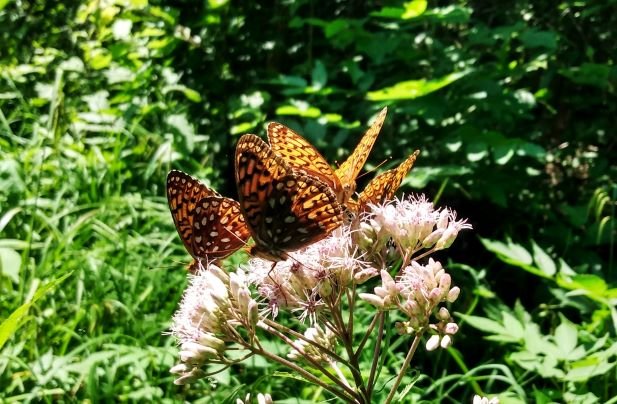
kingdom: Animalia
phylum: Arthropoda
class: Insecta
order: Lepidoptera
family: Nymphalidae
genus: Speyeria
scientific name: Speyeria atlantis
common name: Atlantis Fritillary
